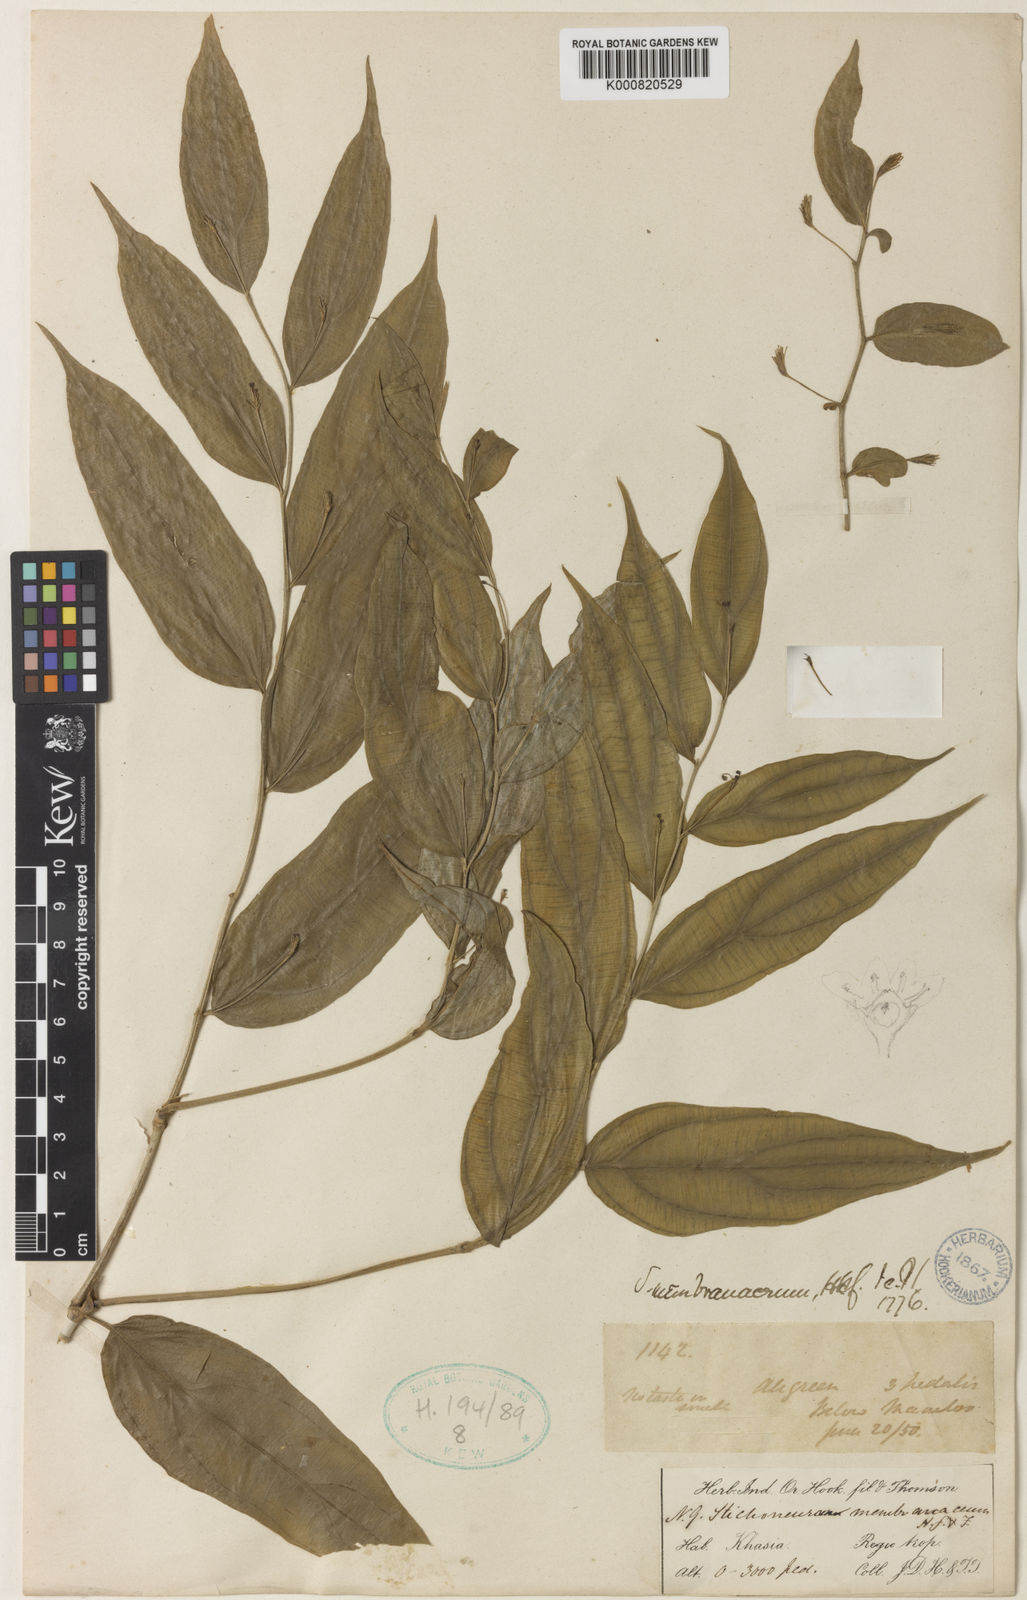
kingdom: Plantae
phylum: Tracheophyta
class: Liliopsida
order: Pandanales
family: Stemonaceae
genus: Stichoneuron
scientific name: Stichoneuron membranaceum
